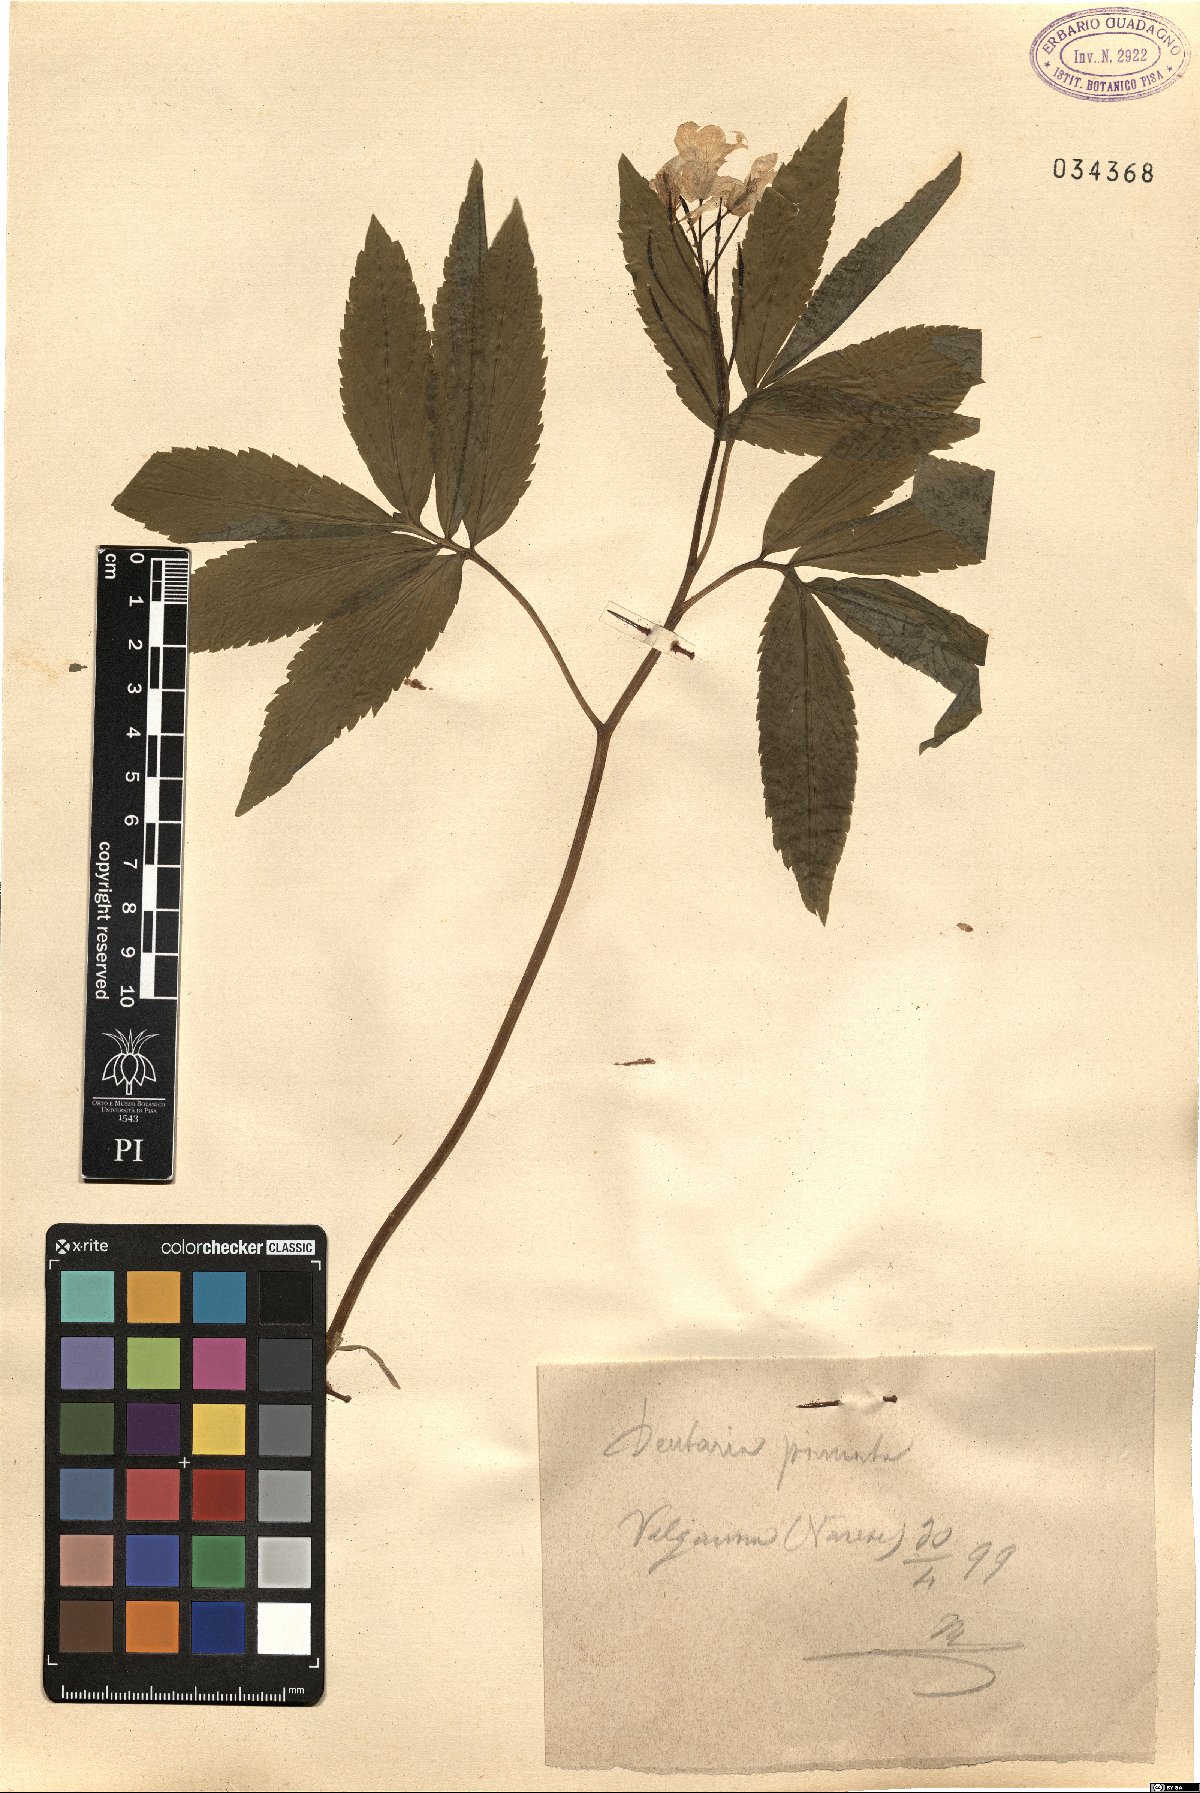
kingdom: Plantae
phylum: Tracheophyta
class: Magnoliopsida
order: Brassicales
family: Brassicaceae
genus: Cardamine
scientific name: Cardamine heptaphylla
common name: Pinnate coralroot
